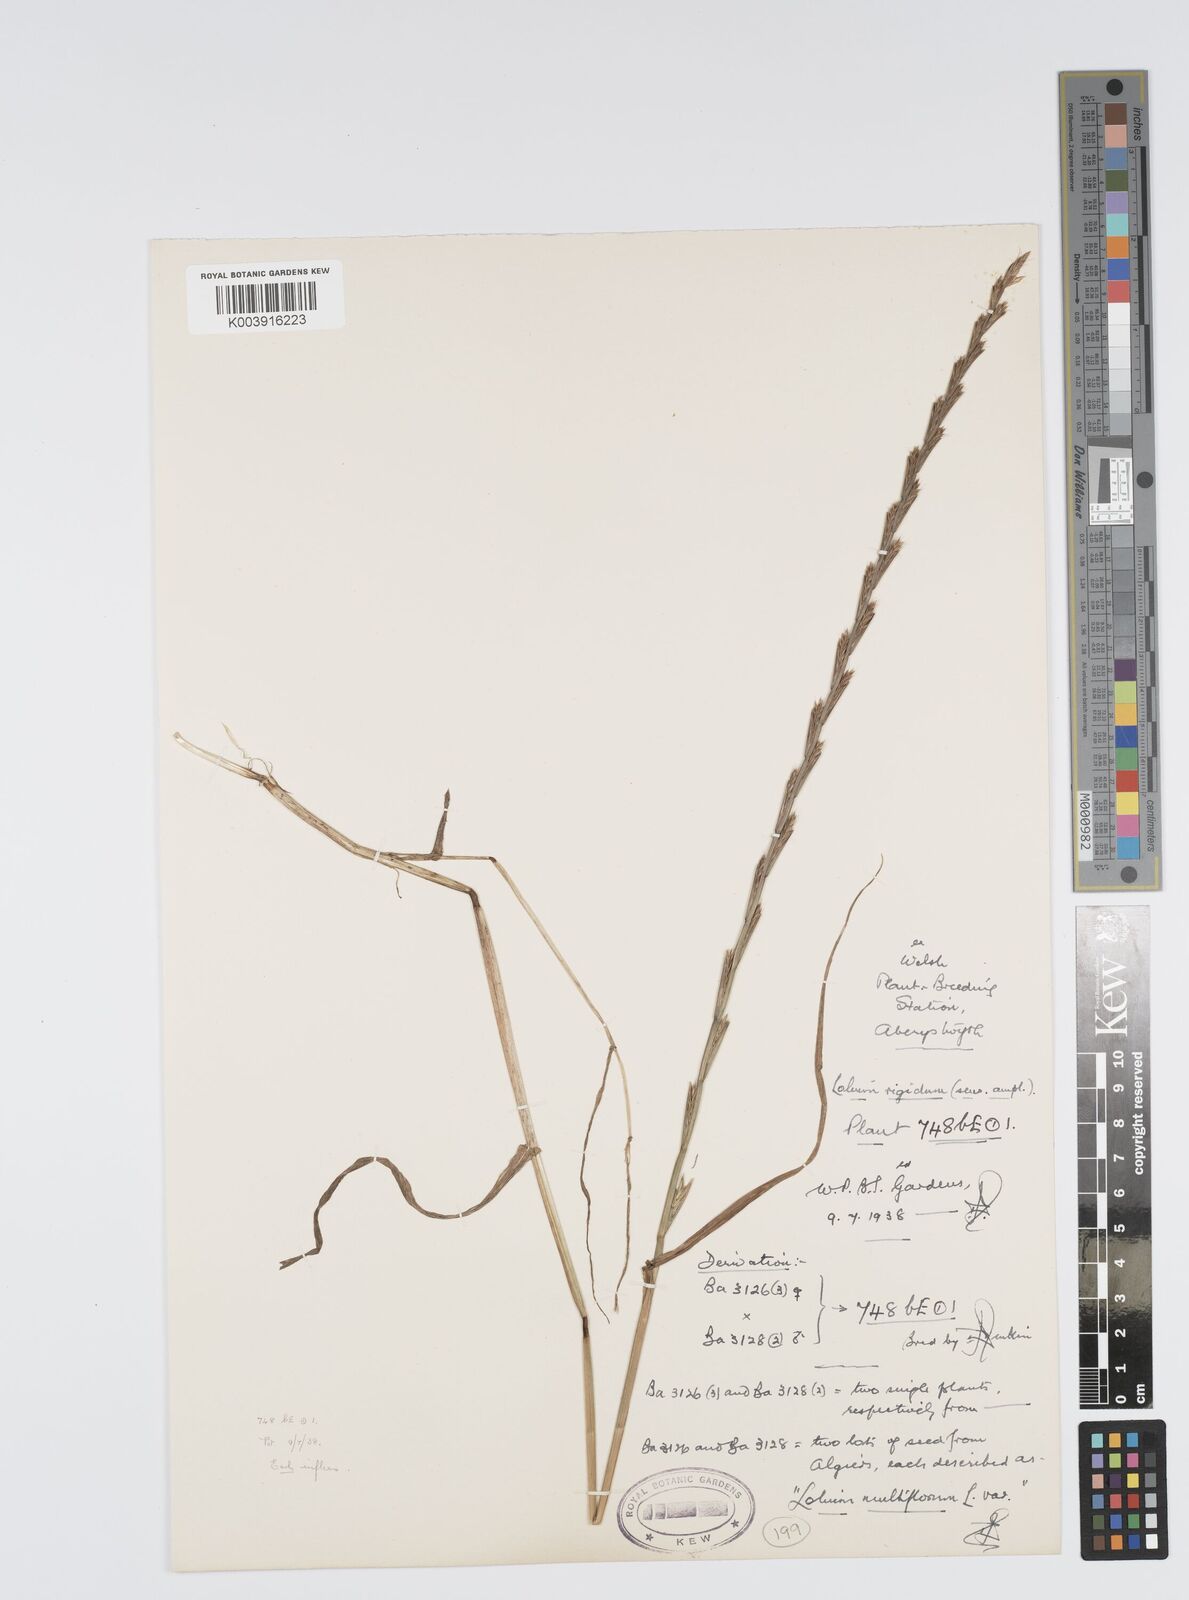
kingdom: Plantae
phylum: Tracheophyta
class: Liliopsida
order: Poales
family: Poaceae
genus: Lolium
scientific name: Lolium rigidum
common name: Wimmera ryegrass
